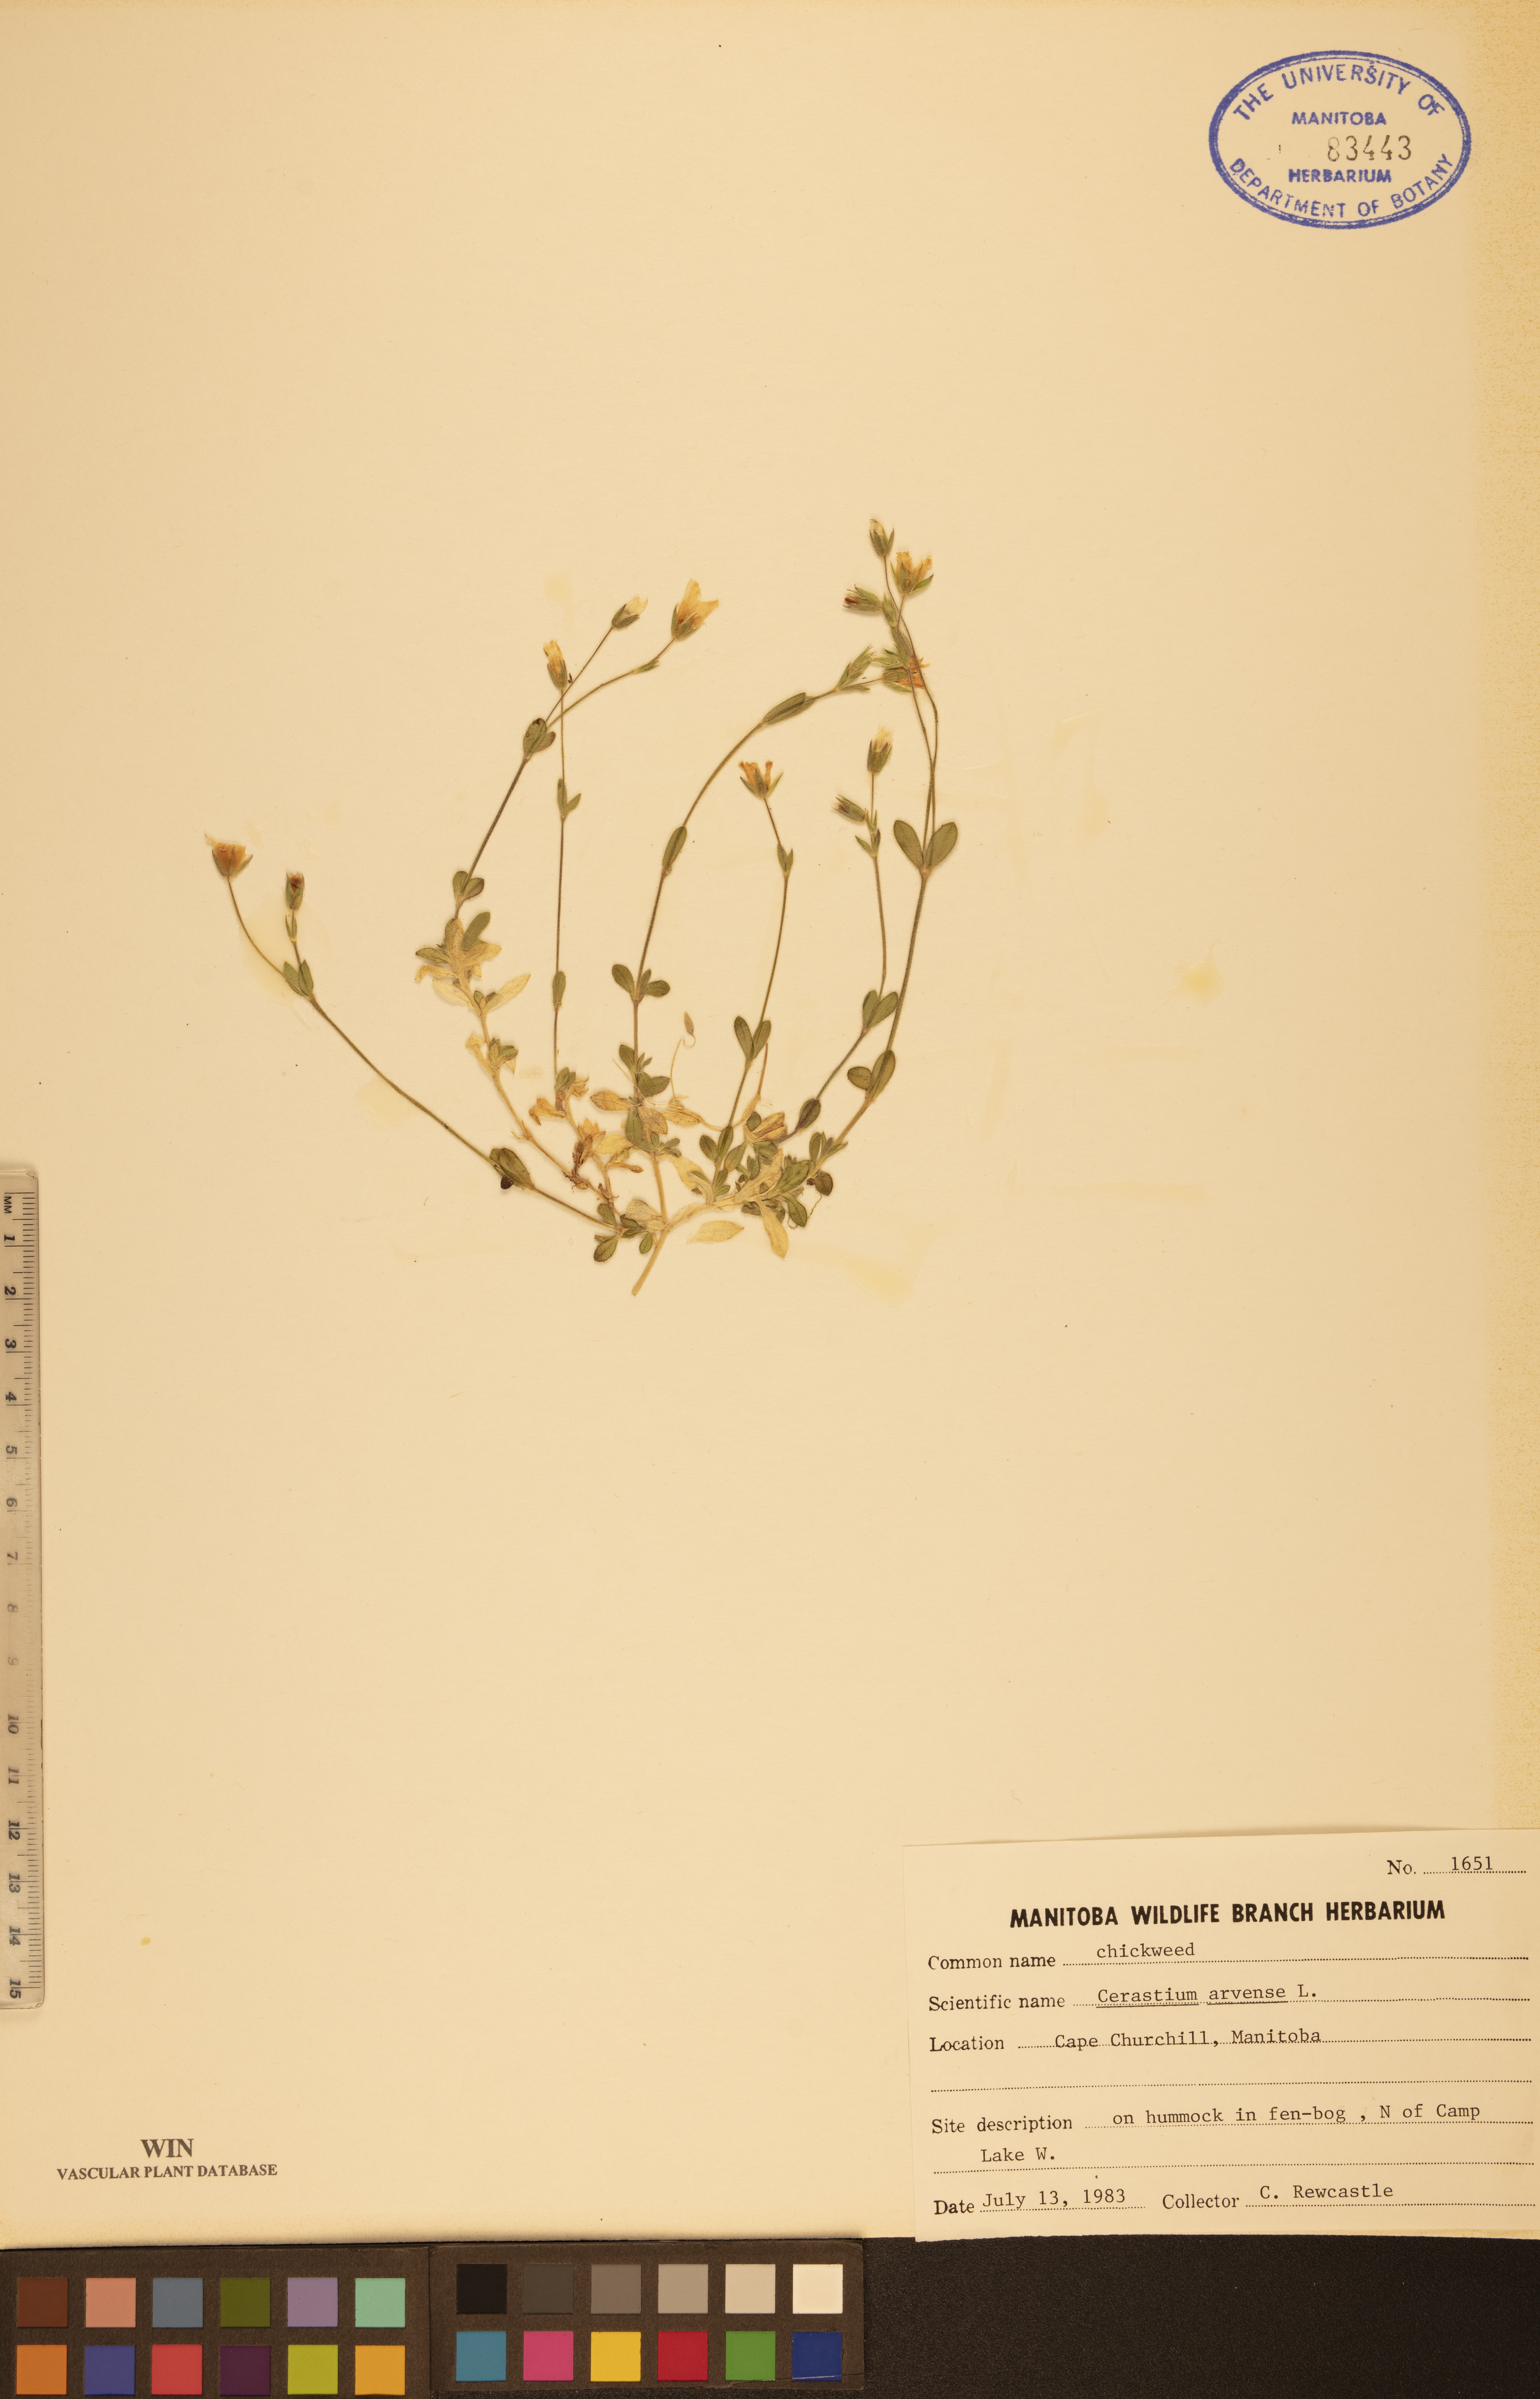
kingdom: Plantae
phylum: Tracheophyta
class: Magnoliopsida
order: Caryophyllales
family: Caryophyllaceae
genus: Cerastium
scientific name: Cerastium arvense
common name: Field mouse-ear
